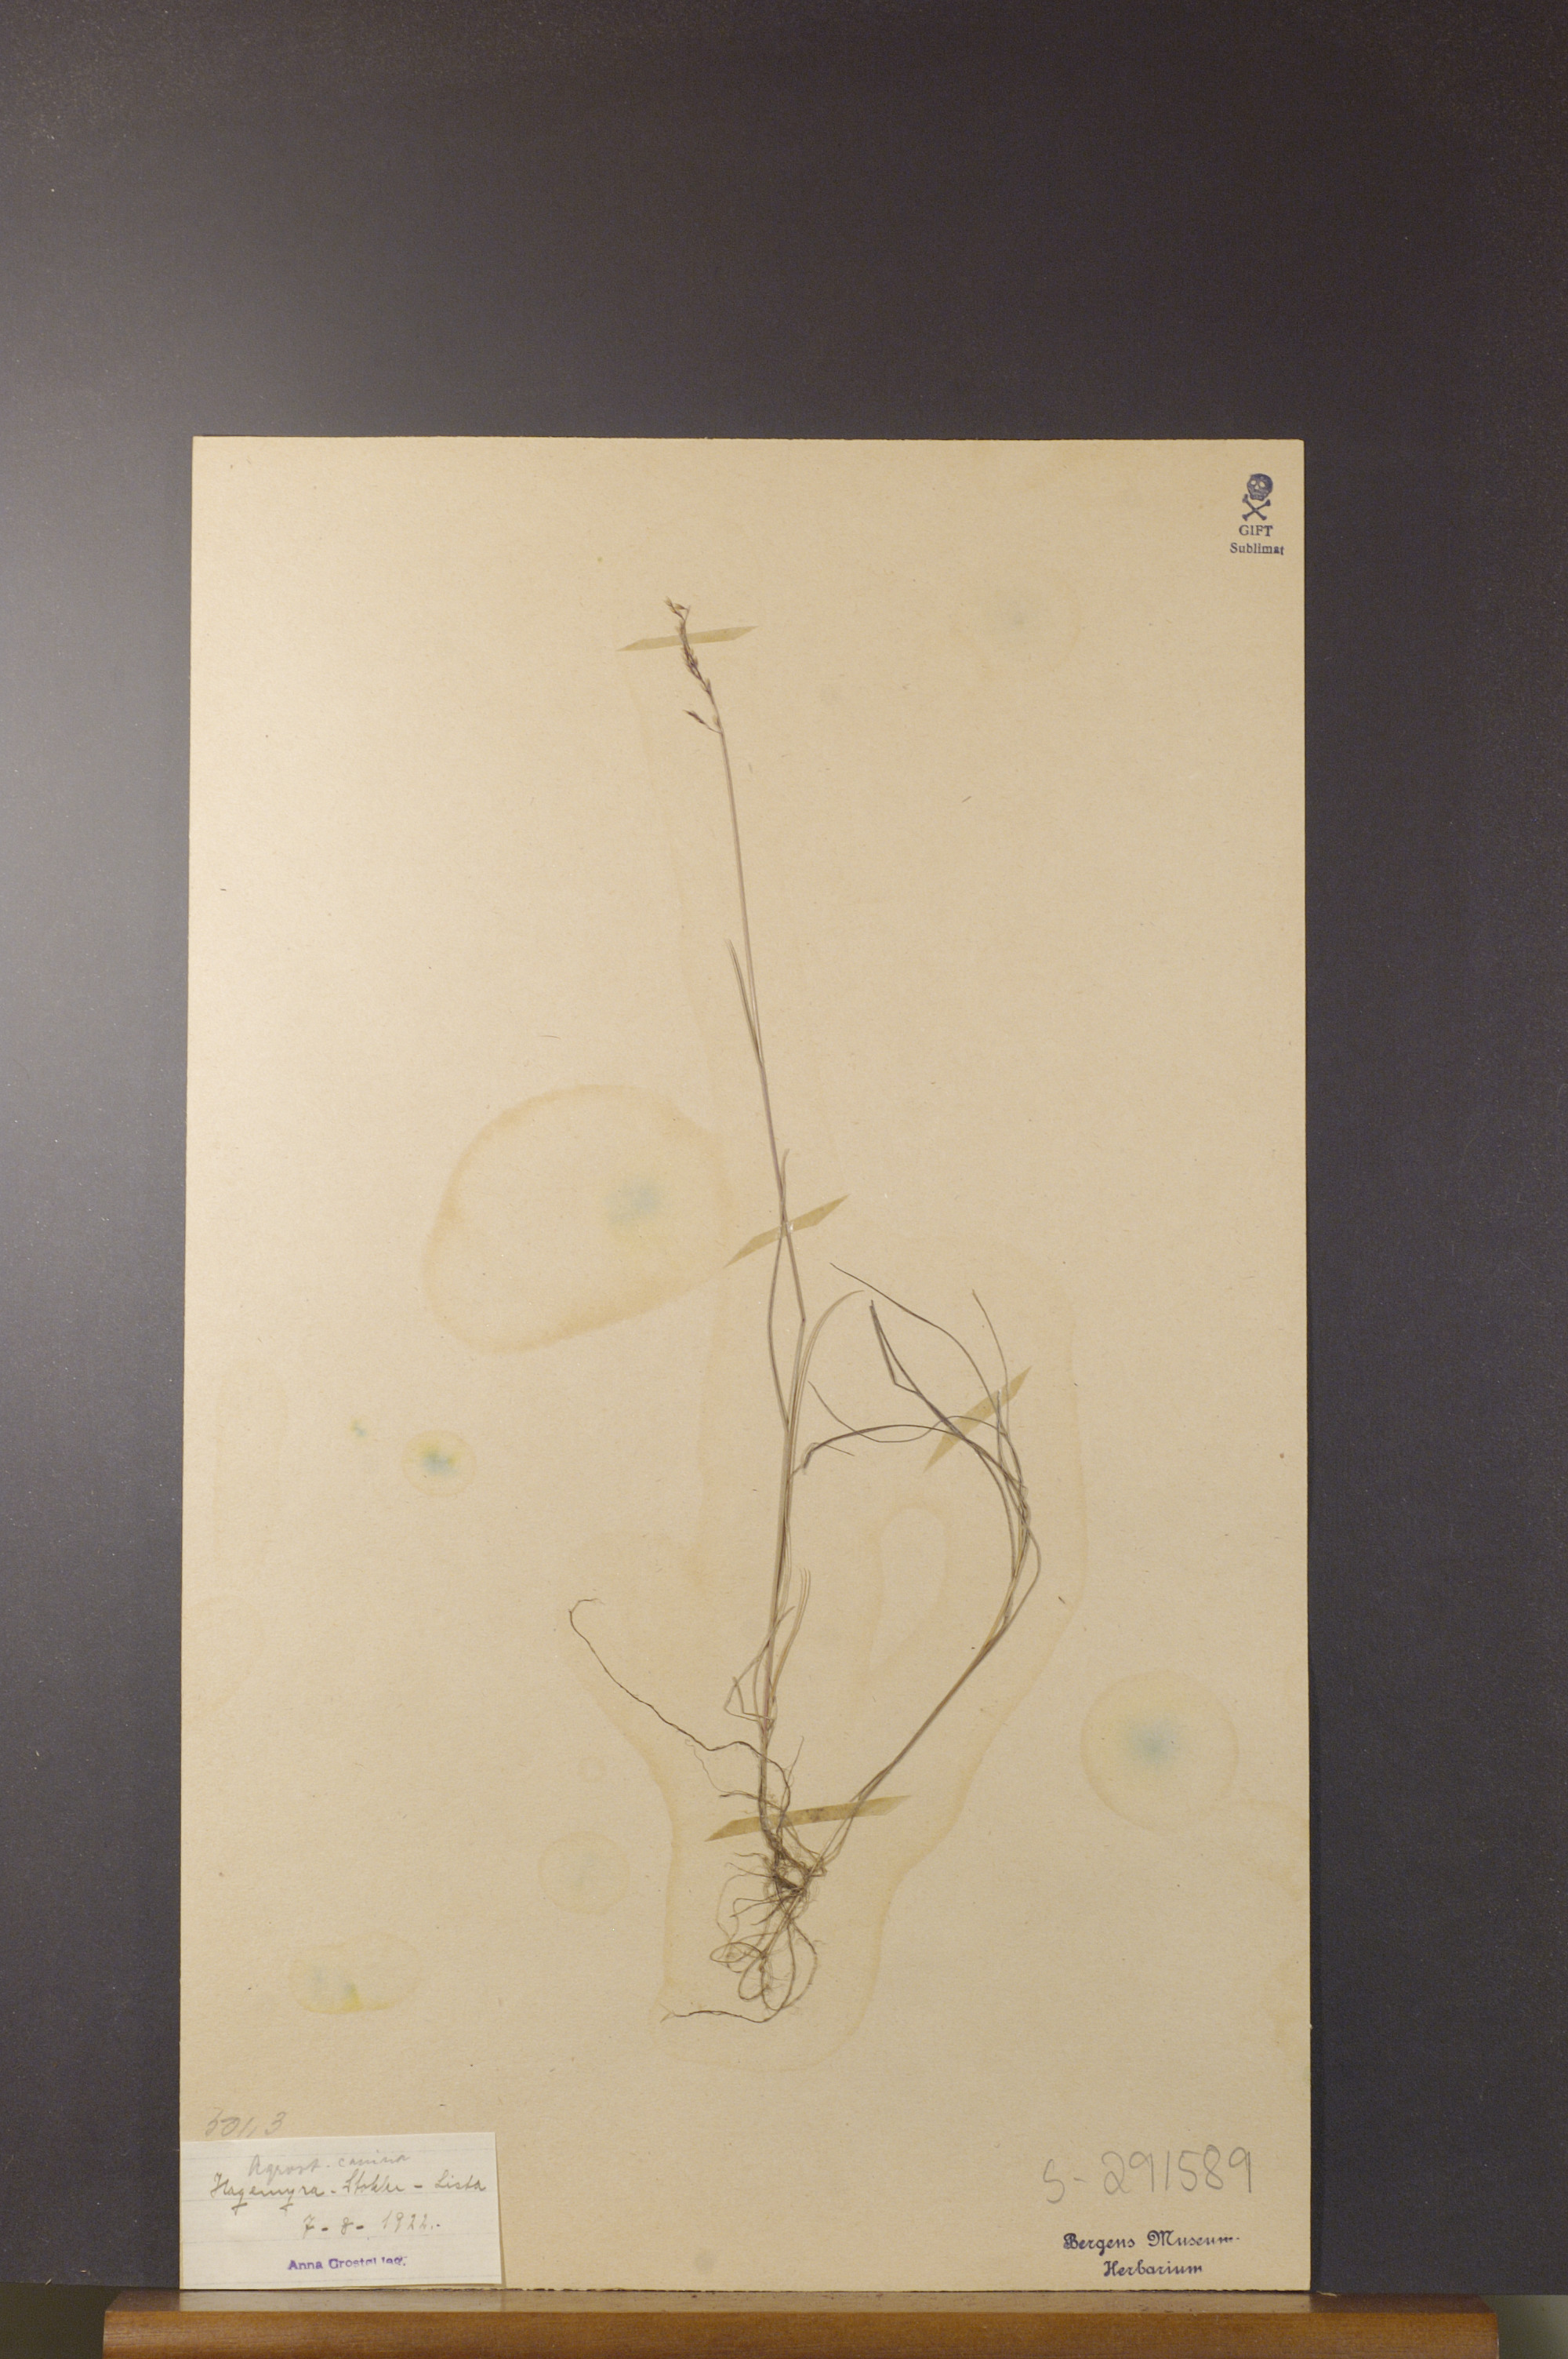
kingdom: Plantae
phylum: Tracheophyta
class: Liliopsida
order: Poales
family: Poaceae
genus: Agrostis
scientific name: Agrostis canina
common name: Velvet bent
